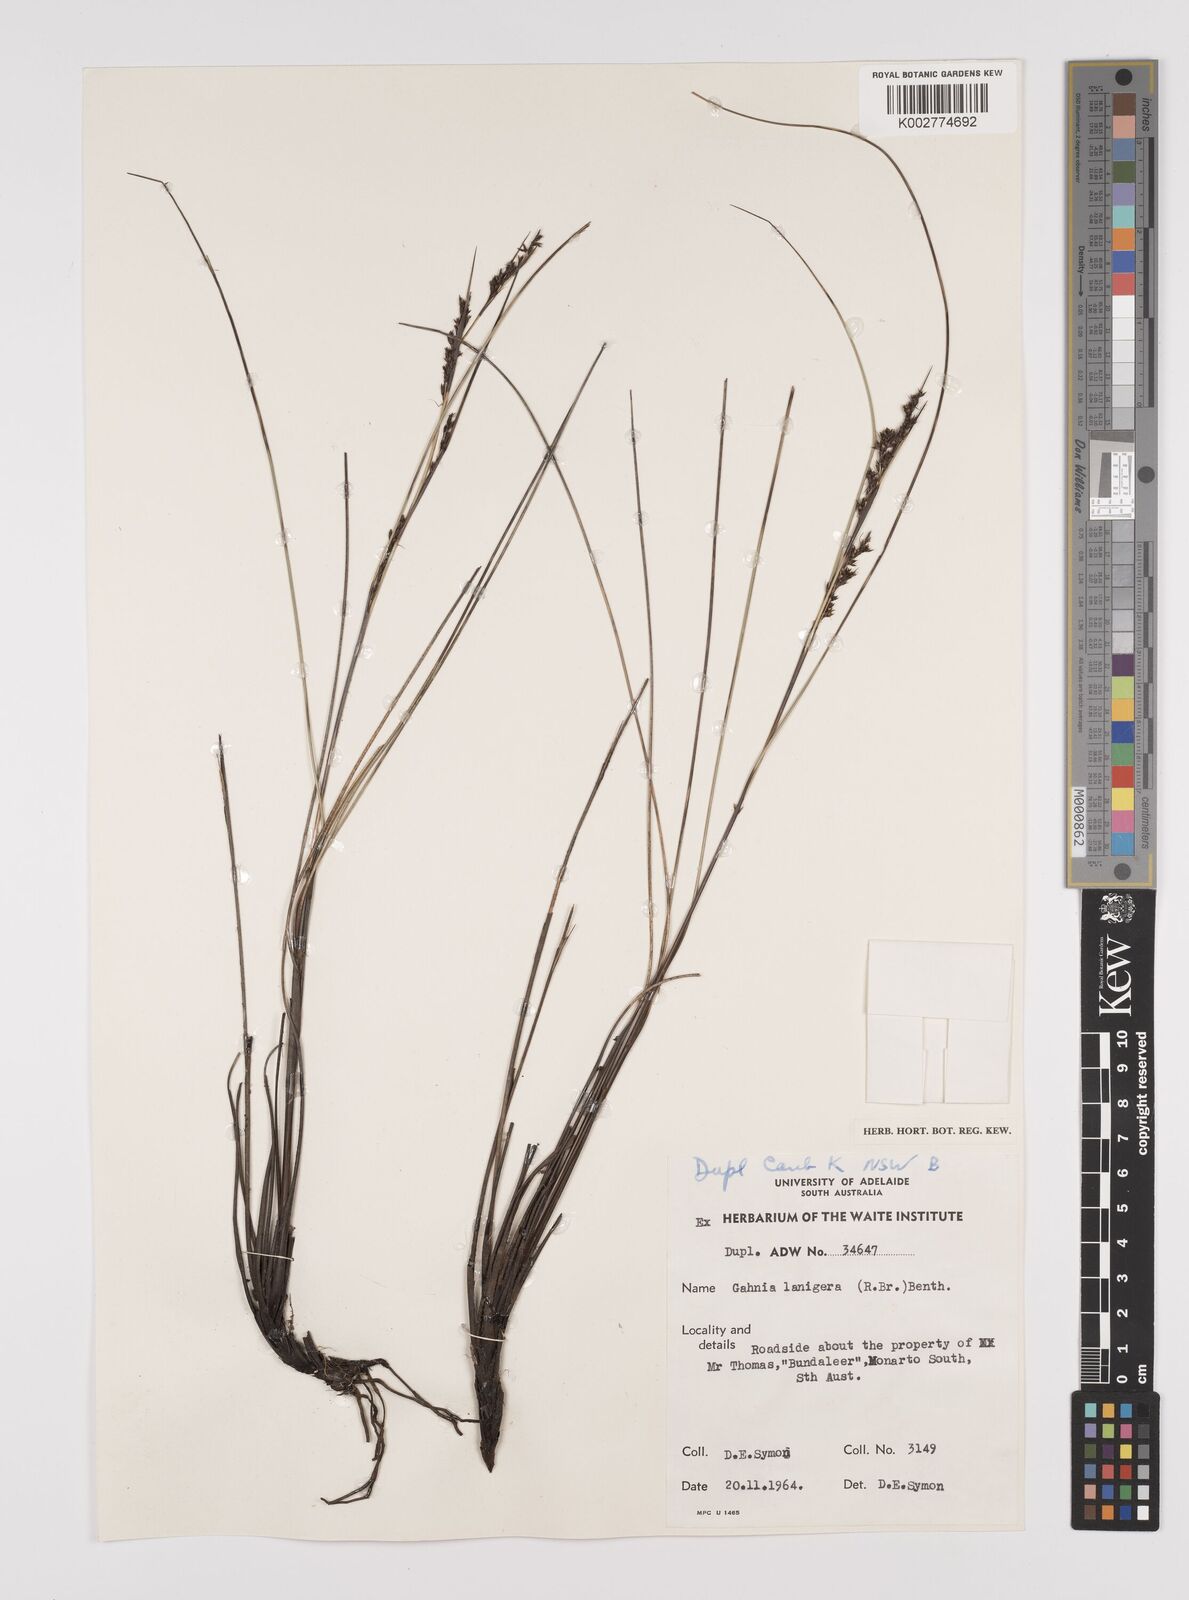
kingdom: Plantae
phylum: Tracheophyta
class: Liliopsida
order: Poales
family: Cyperaceae
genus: Gahnia
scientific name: Gahnia lanigera
